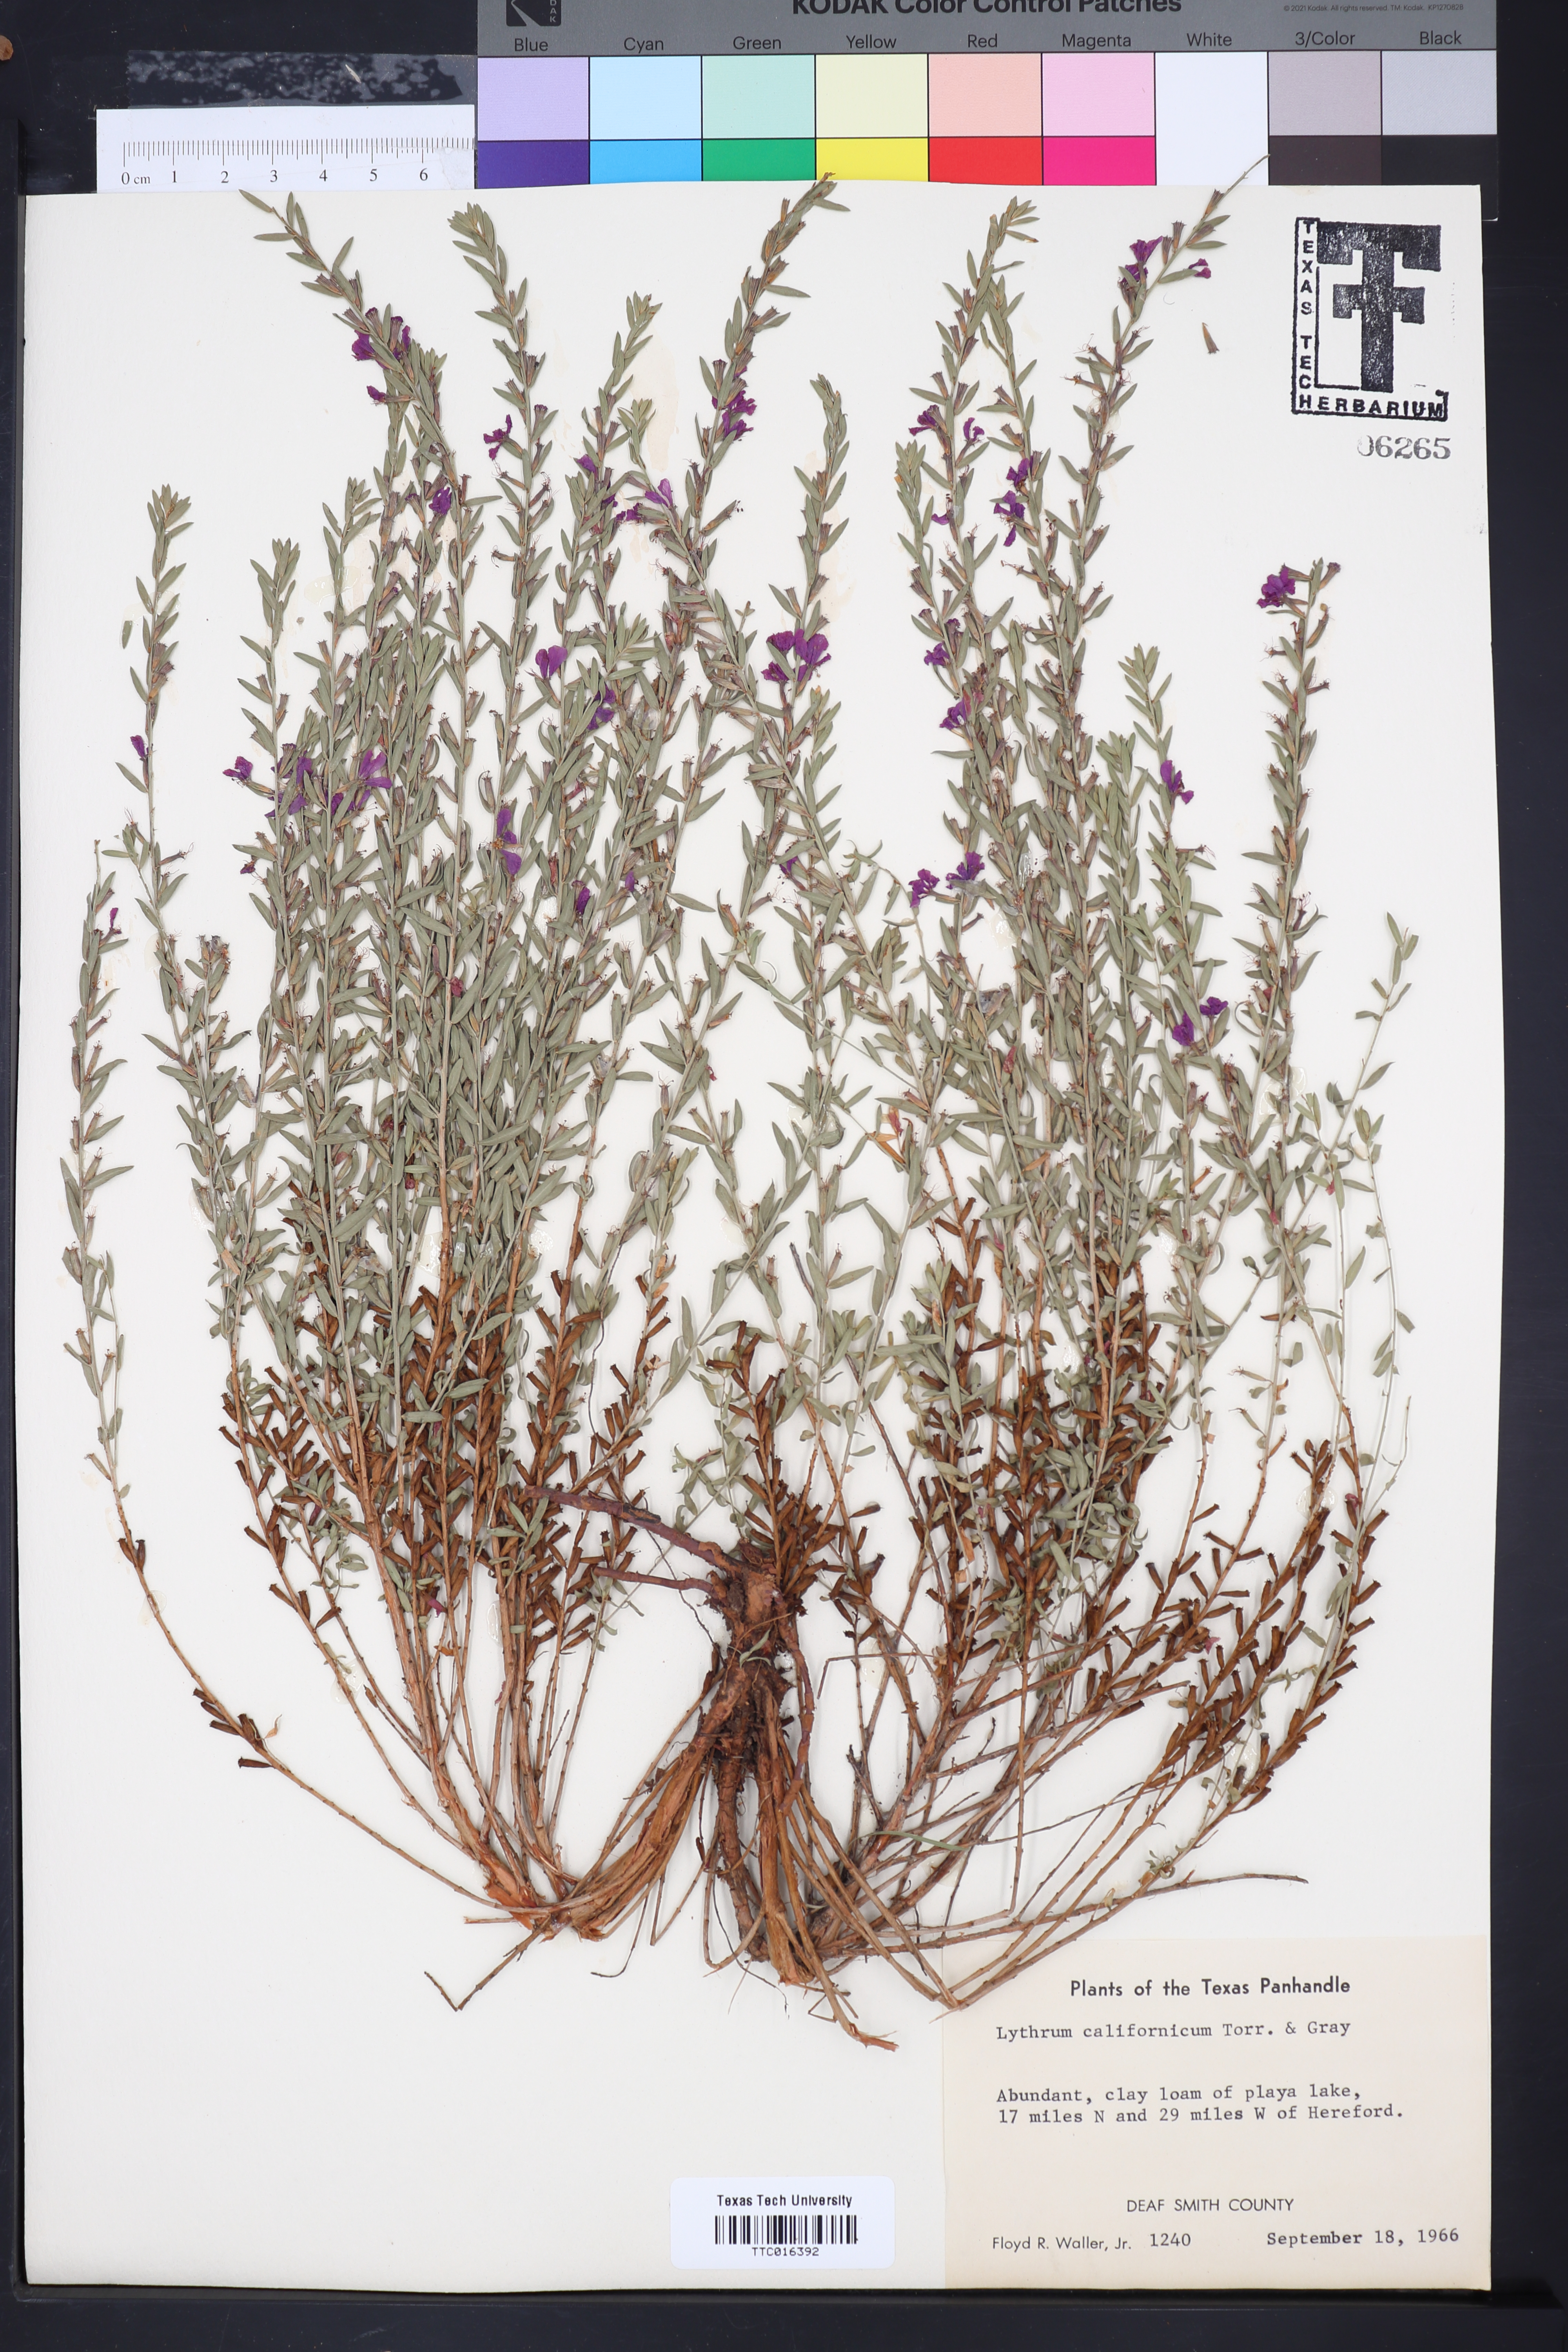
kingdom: Plantae
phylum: Tracheophyta
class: Magnoliopsida
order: Myrtales
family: Lythraceae
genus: Lythrum
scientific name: Lythrum californicum
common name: California loosestrife
